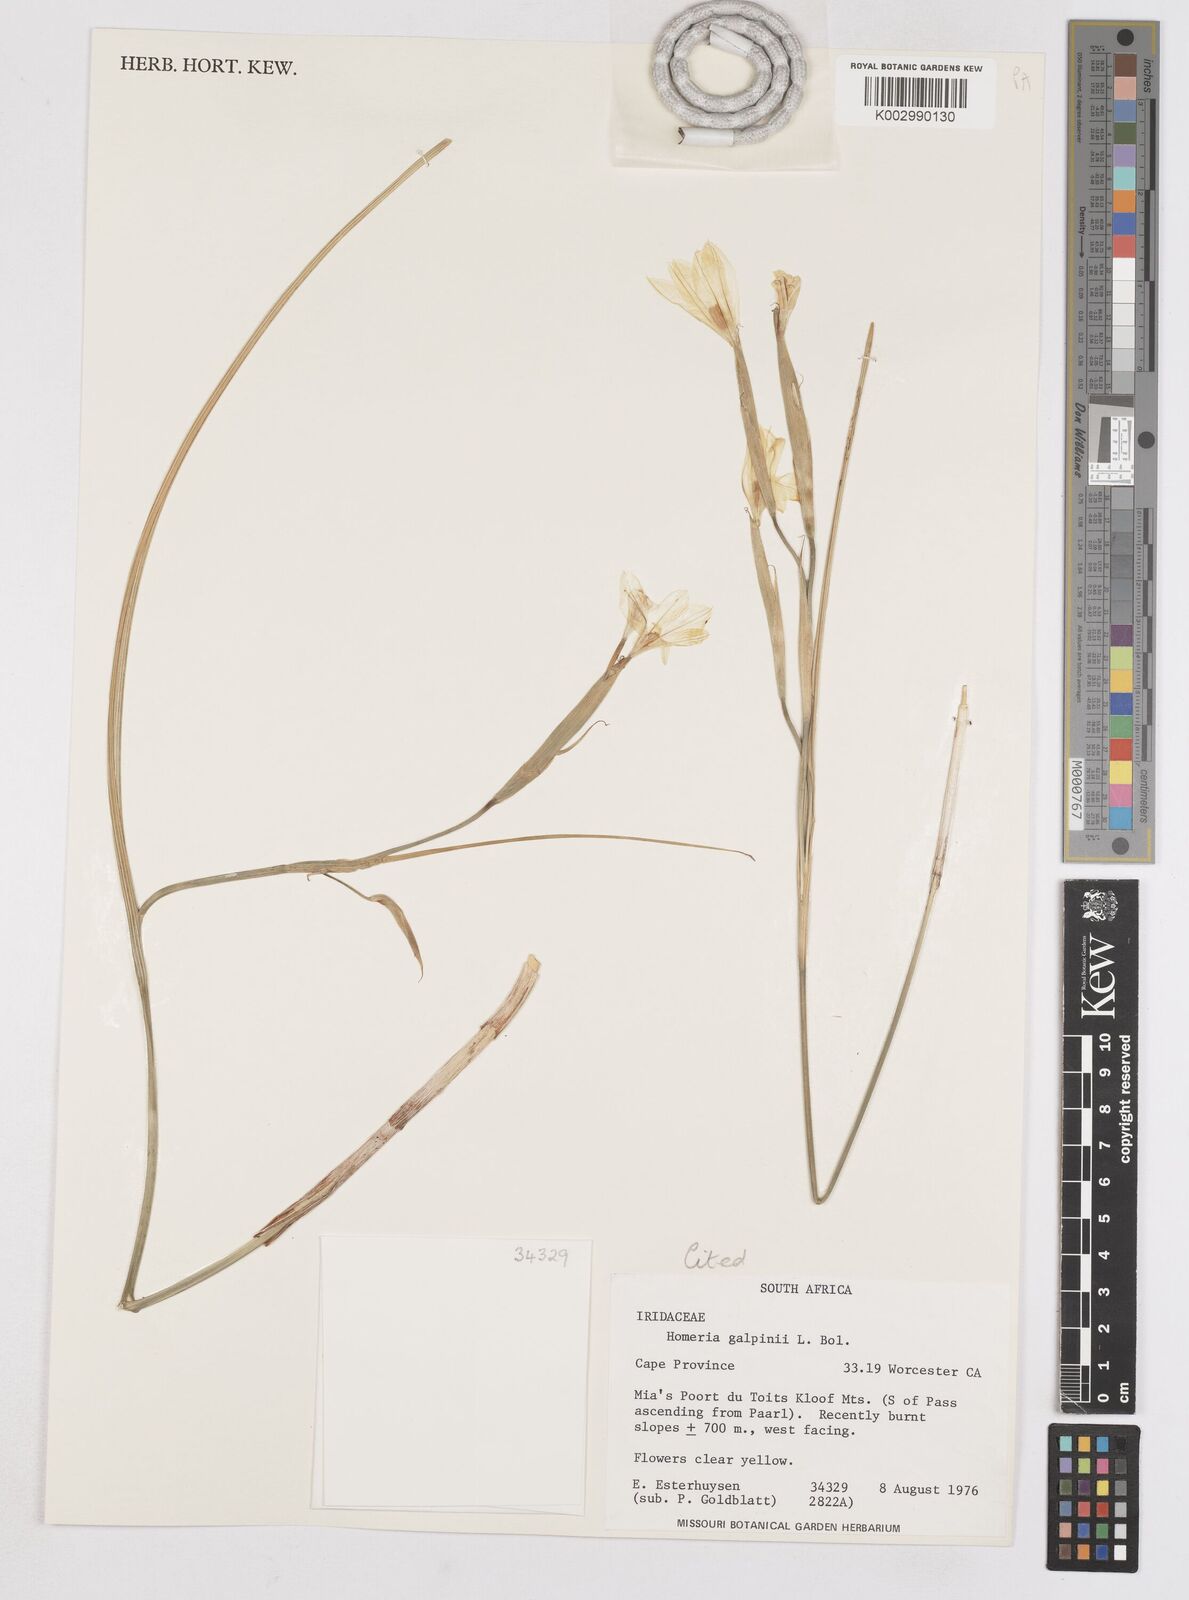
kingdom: Plantae
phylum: Tracheophyta
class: Liliopsida
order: Asparagales
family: Iridaceae
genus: Moraea
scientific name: Moraea
